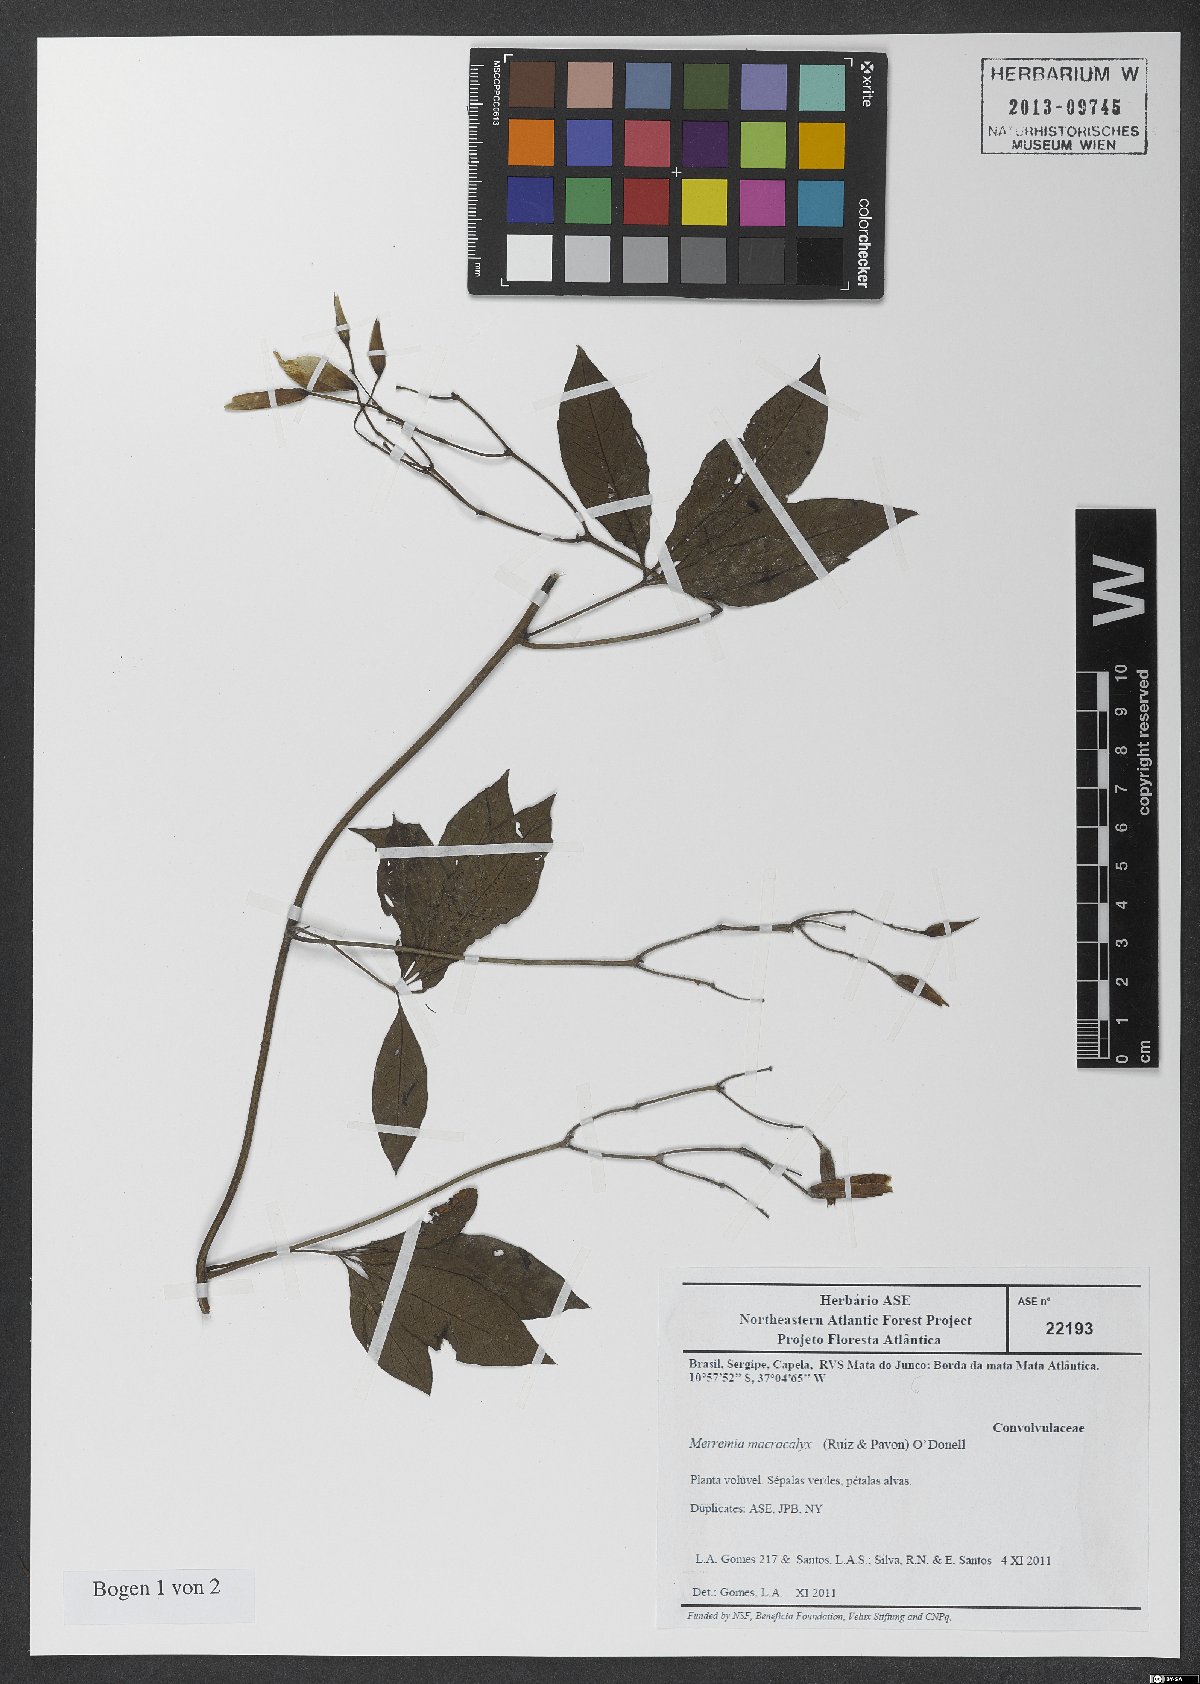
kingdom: Plantae
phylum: Tracheophyta
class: Magnoliopsida
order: Solanales
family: Convolvulaceae
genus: Distimake
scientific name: Distimake macrocalyx
